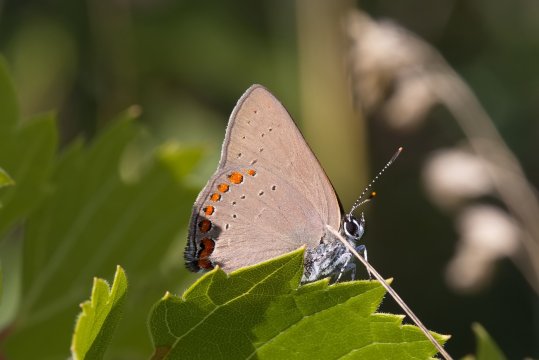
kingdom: Animalia
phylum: Arthropoda
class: Insecta
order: Lepidoptera
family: Lycaenidae
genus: Harkenclenus
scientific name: Harkenclenus titus
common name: Coral Hairstreak
